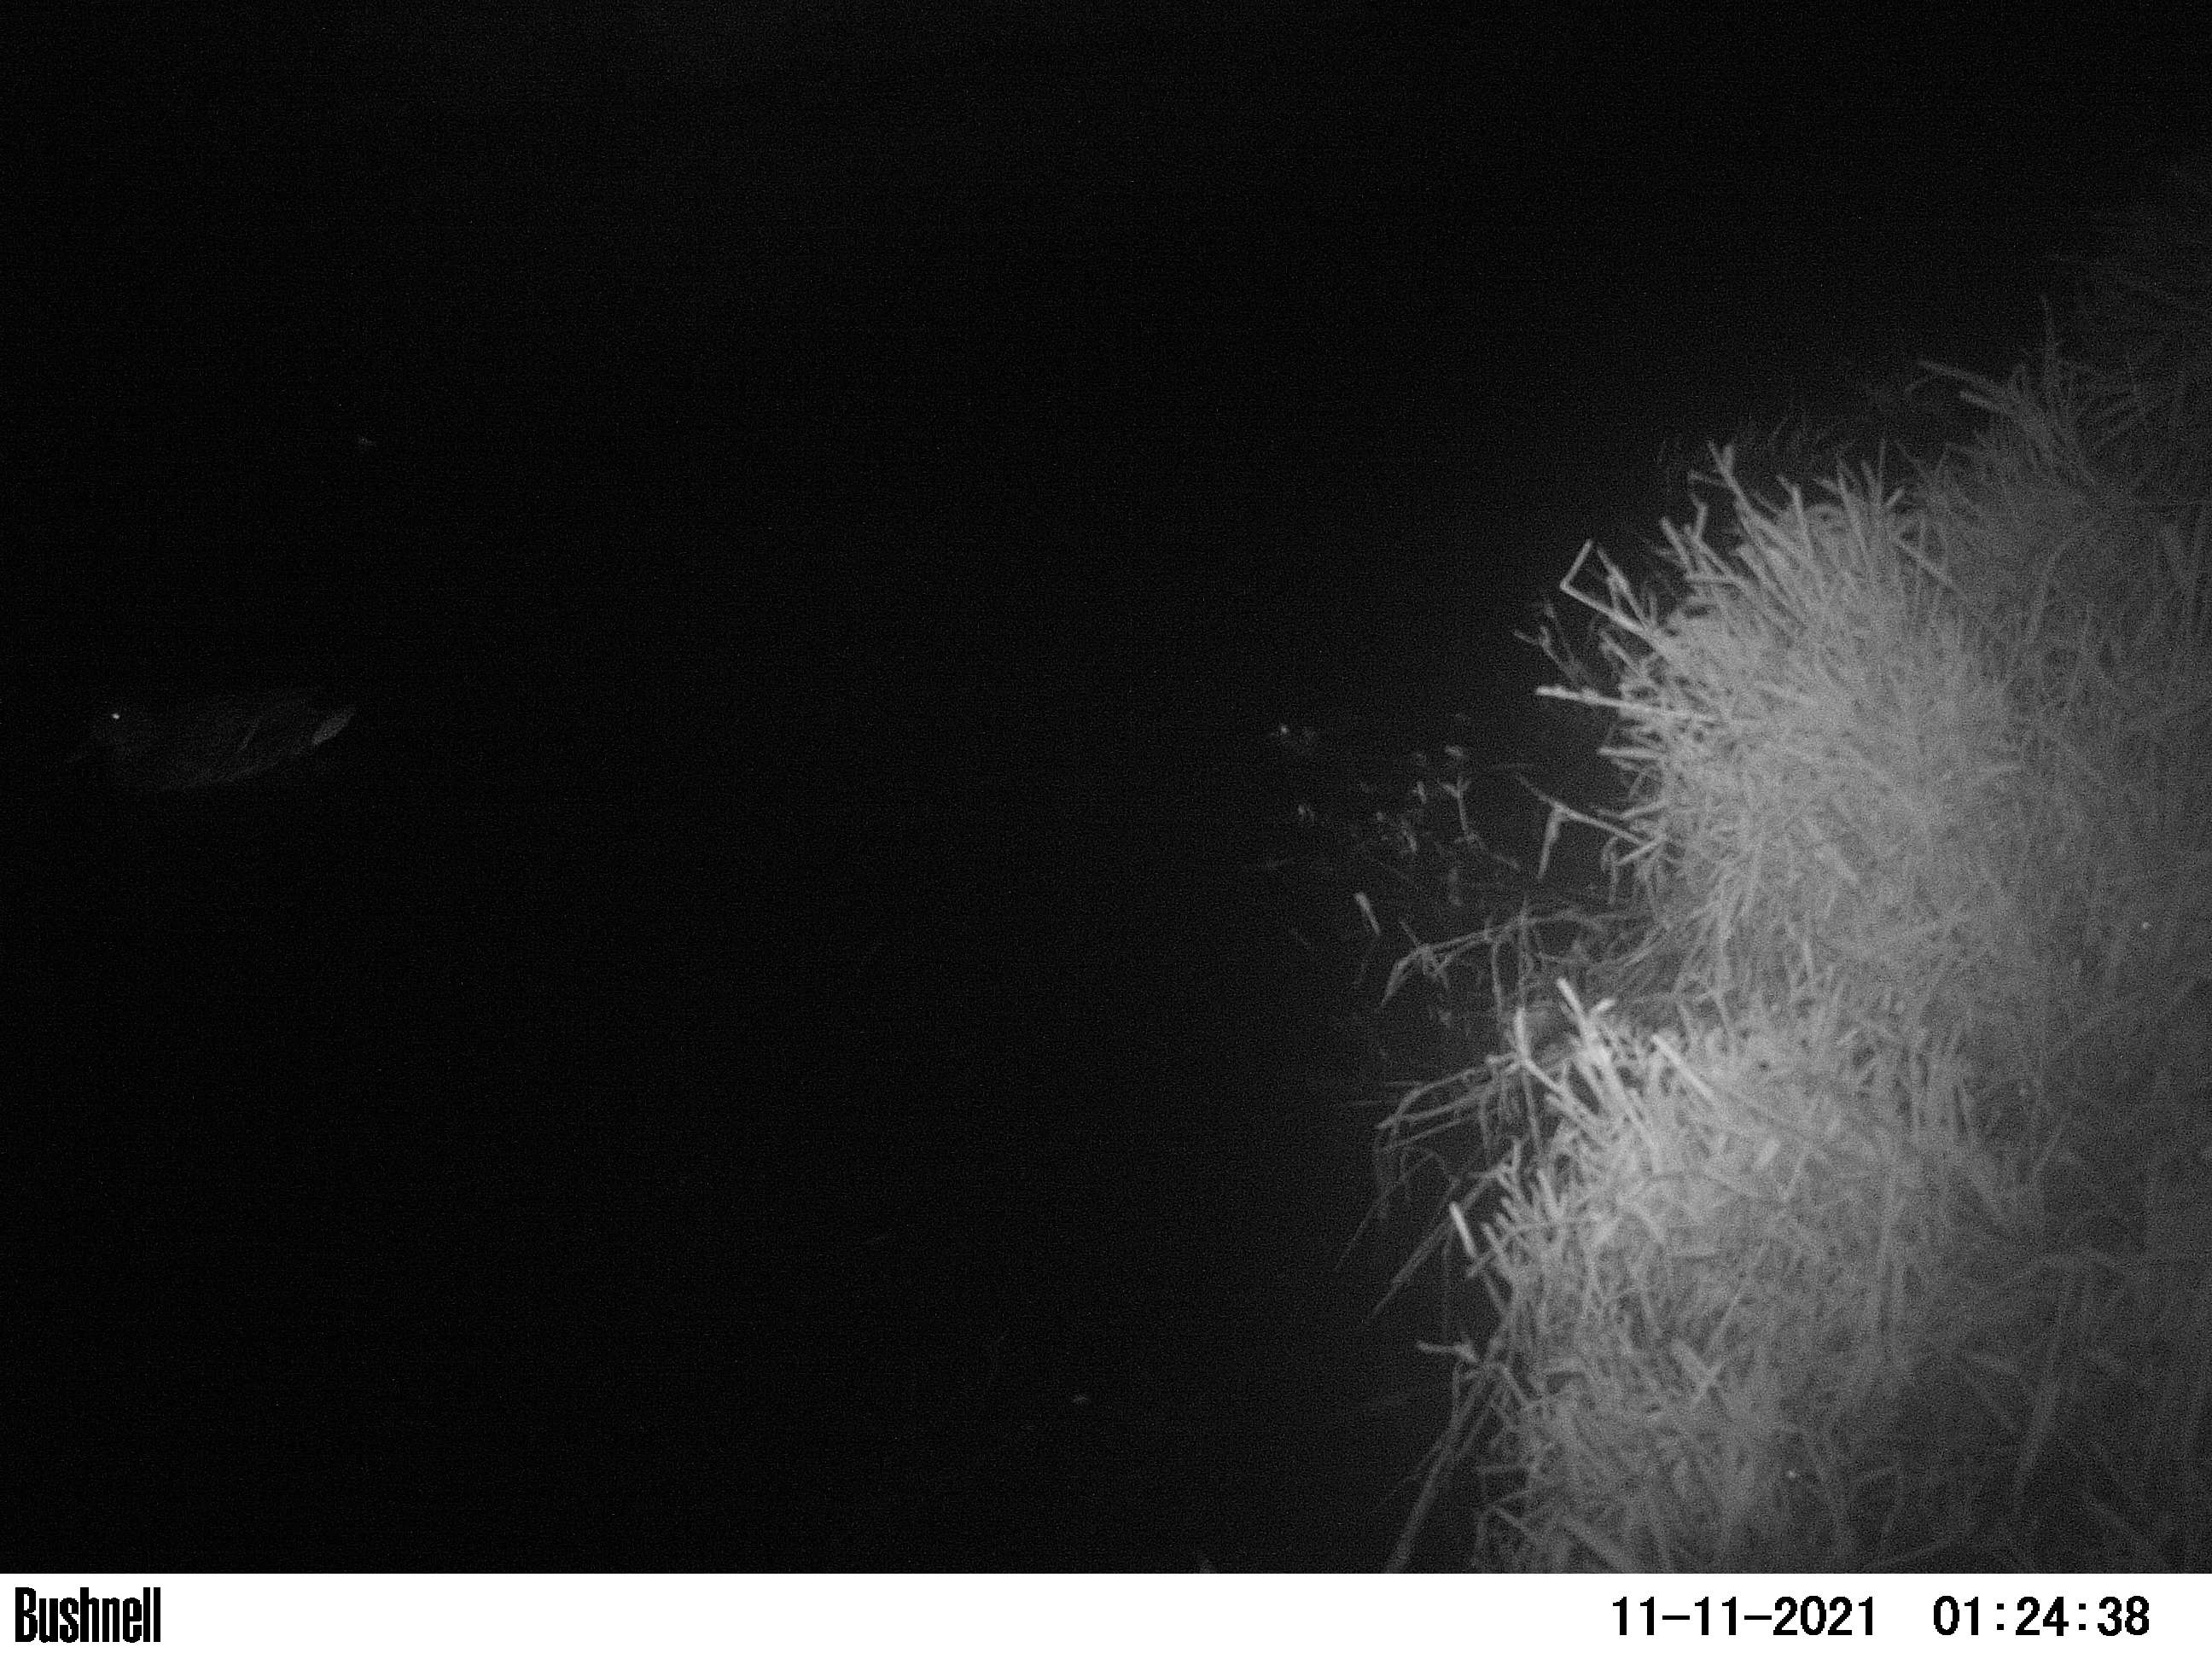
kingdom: Animalia
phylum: Chordata
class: Aves
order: Anseriformes
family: Anatidae
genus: Anas
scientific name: Anas
